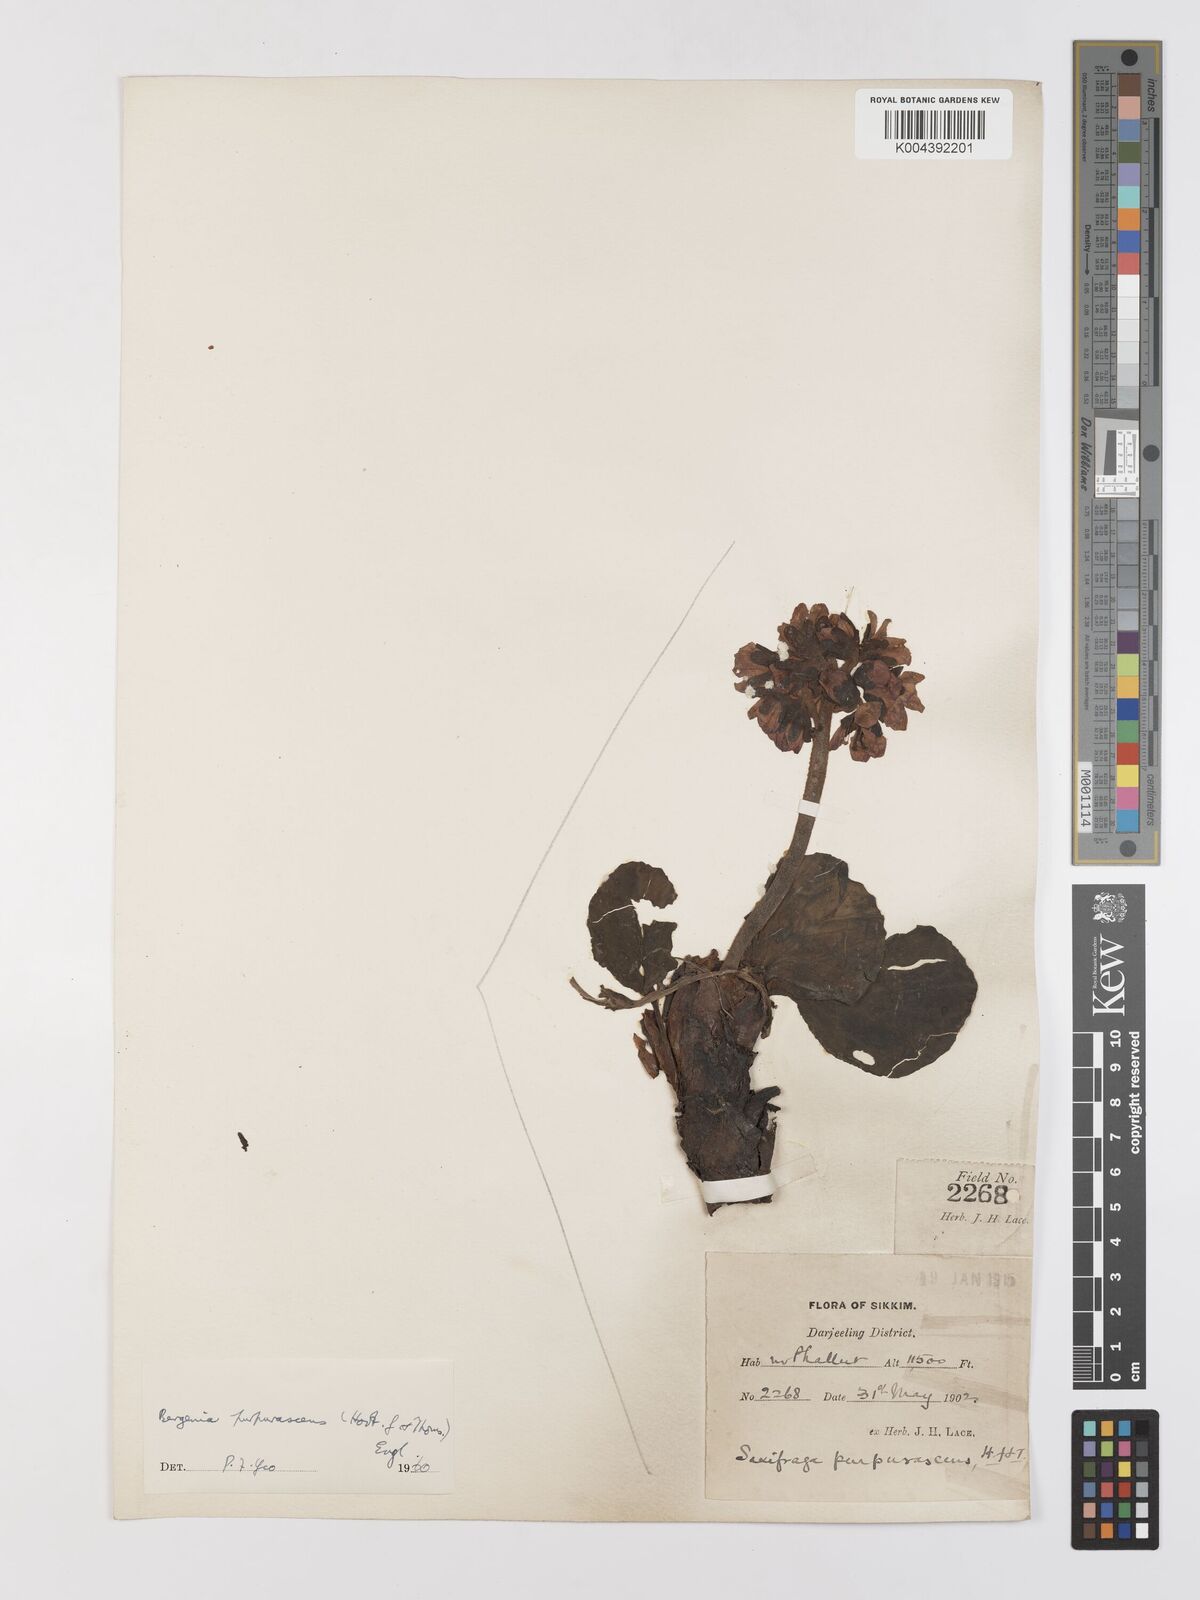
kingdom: Plantae
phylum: Tracheophyta
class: Magnoliopsida
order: Saxifragales
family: Saxifragaceae
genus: Bergenia
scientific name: Bergenia purpurascens
